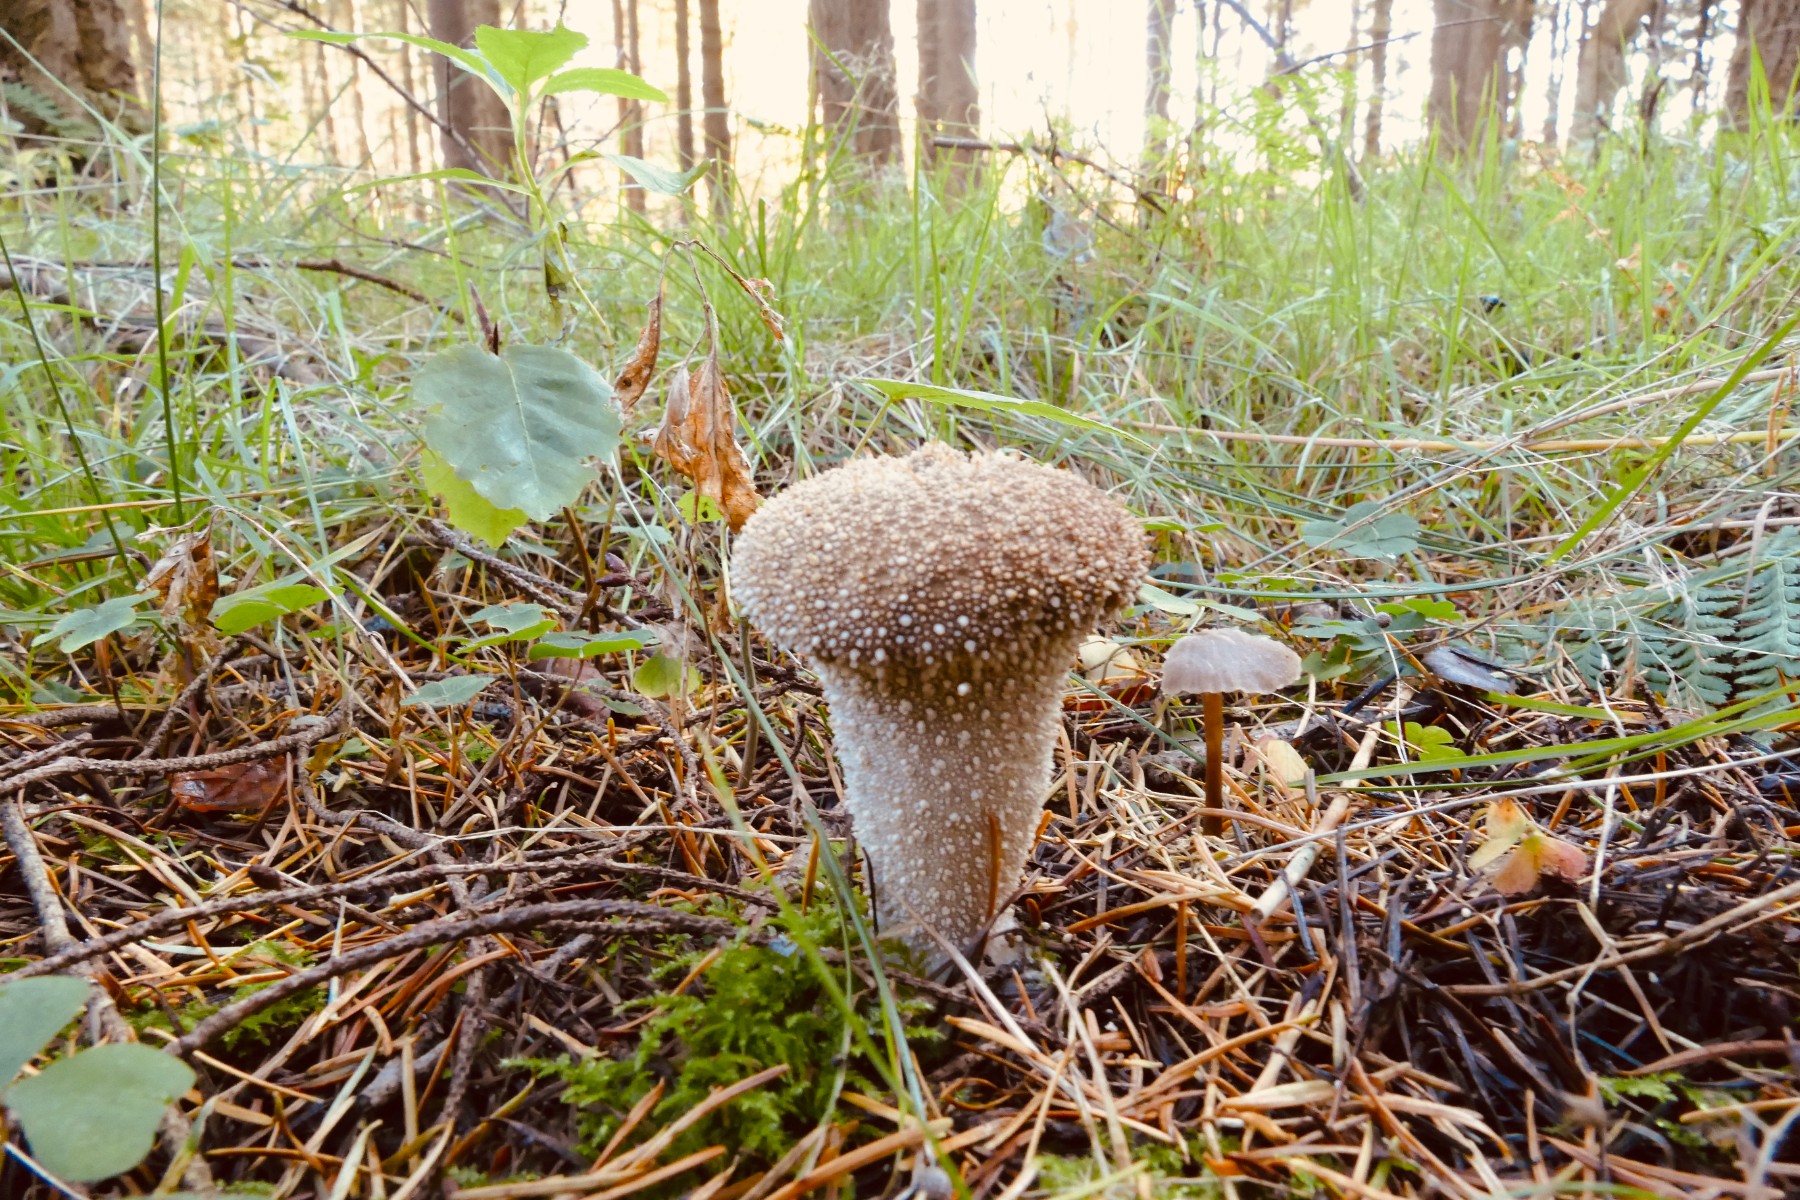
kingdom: Fungi
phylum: Basidiomycota
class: Agaricomycetes
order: Agaricales
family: Lycoperdaceae
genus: Lycoperdon
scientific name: Lycoperdon perlatum
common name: krystal-støvbold
